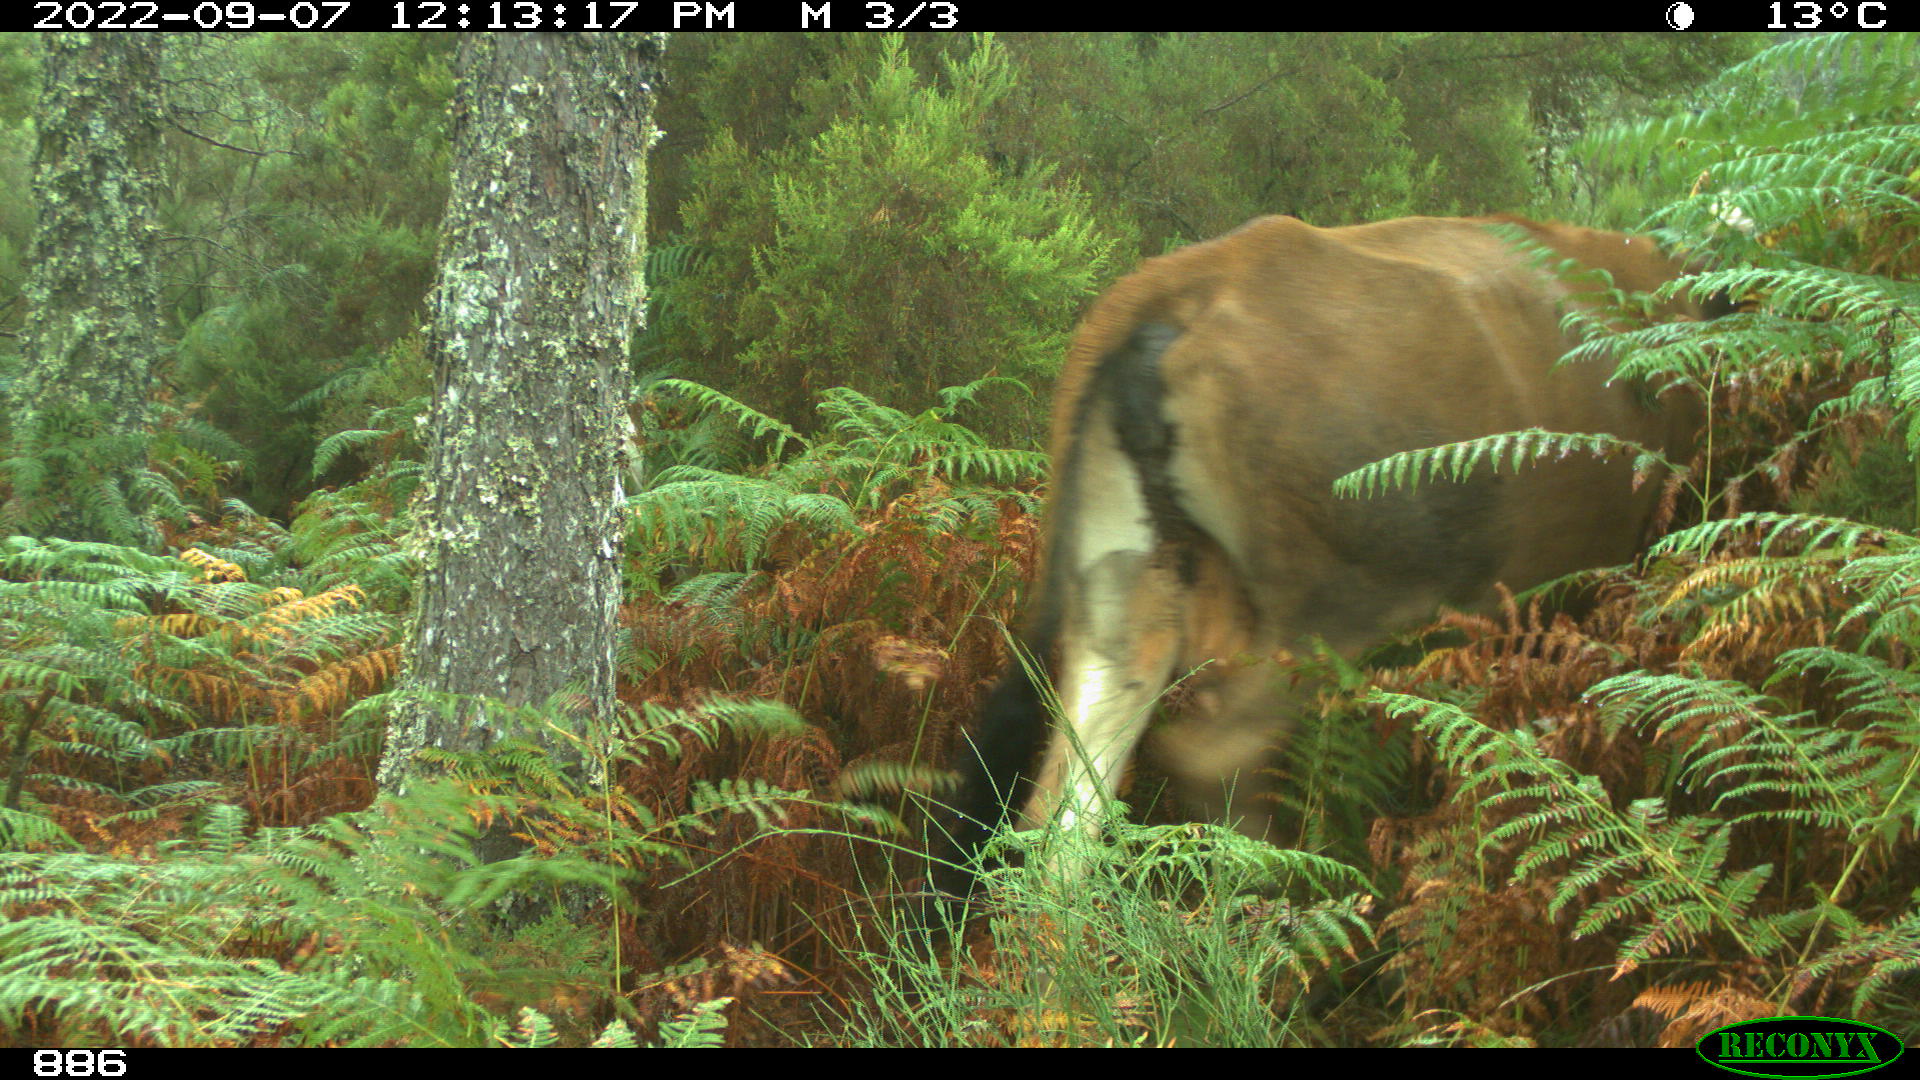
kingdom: Animalia
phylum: Chordata
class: Mammalia
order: Artiodactyla
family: Bovidae
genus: Bos
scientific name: Bos taurus
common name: Domesticated cattle
